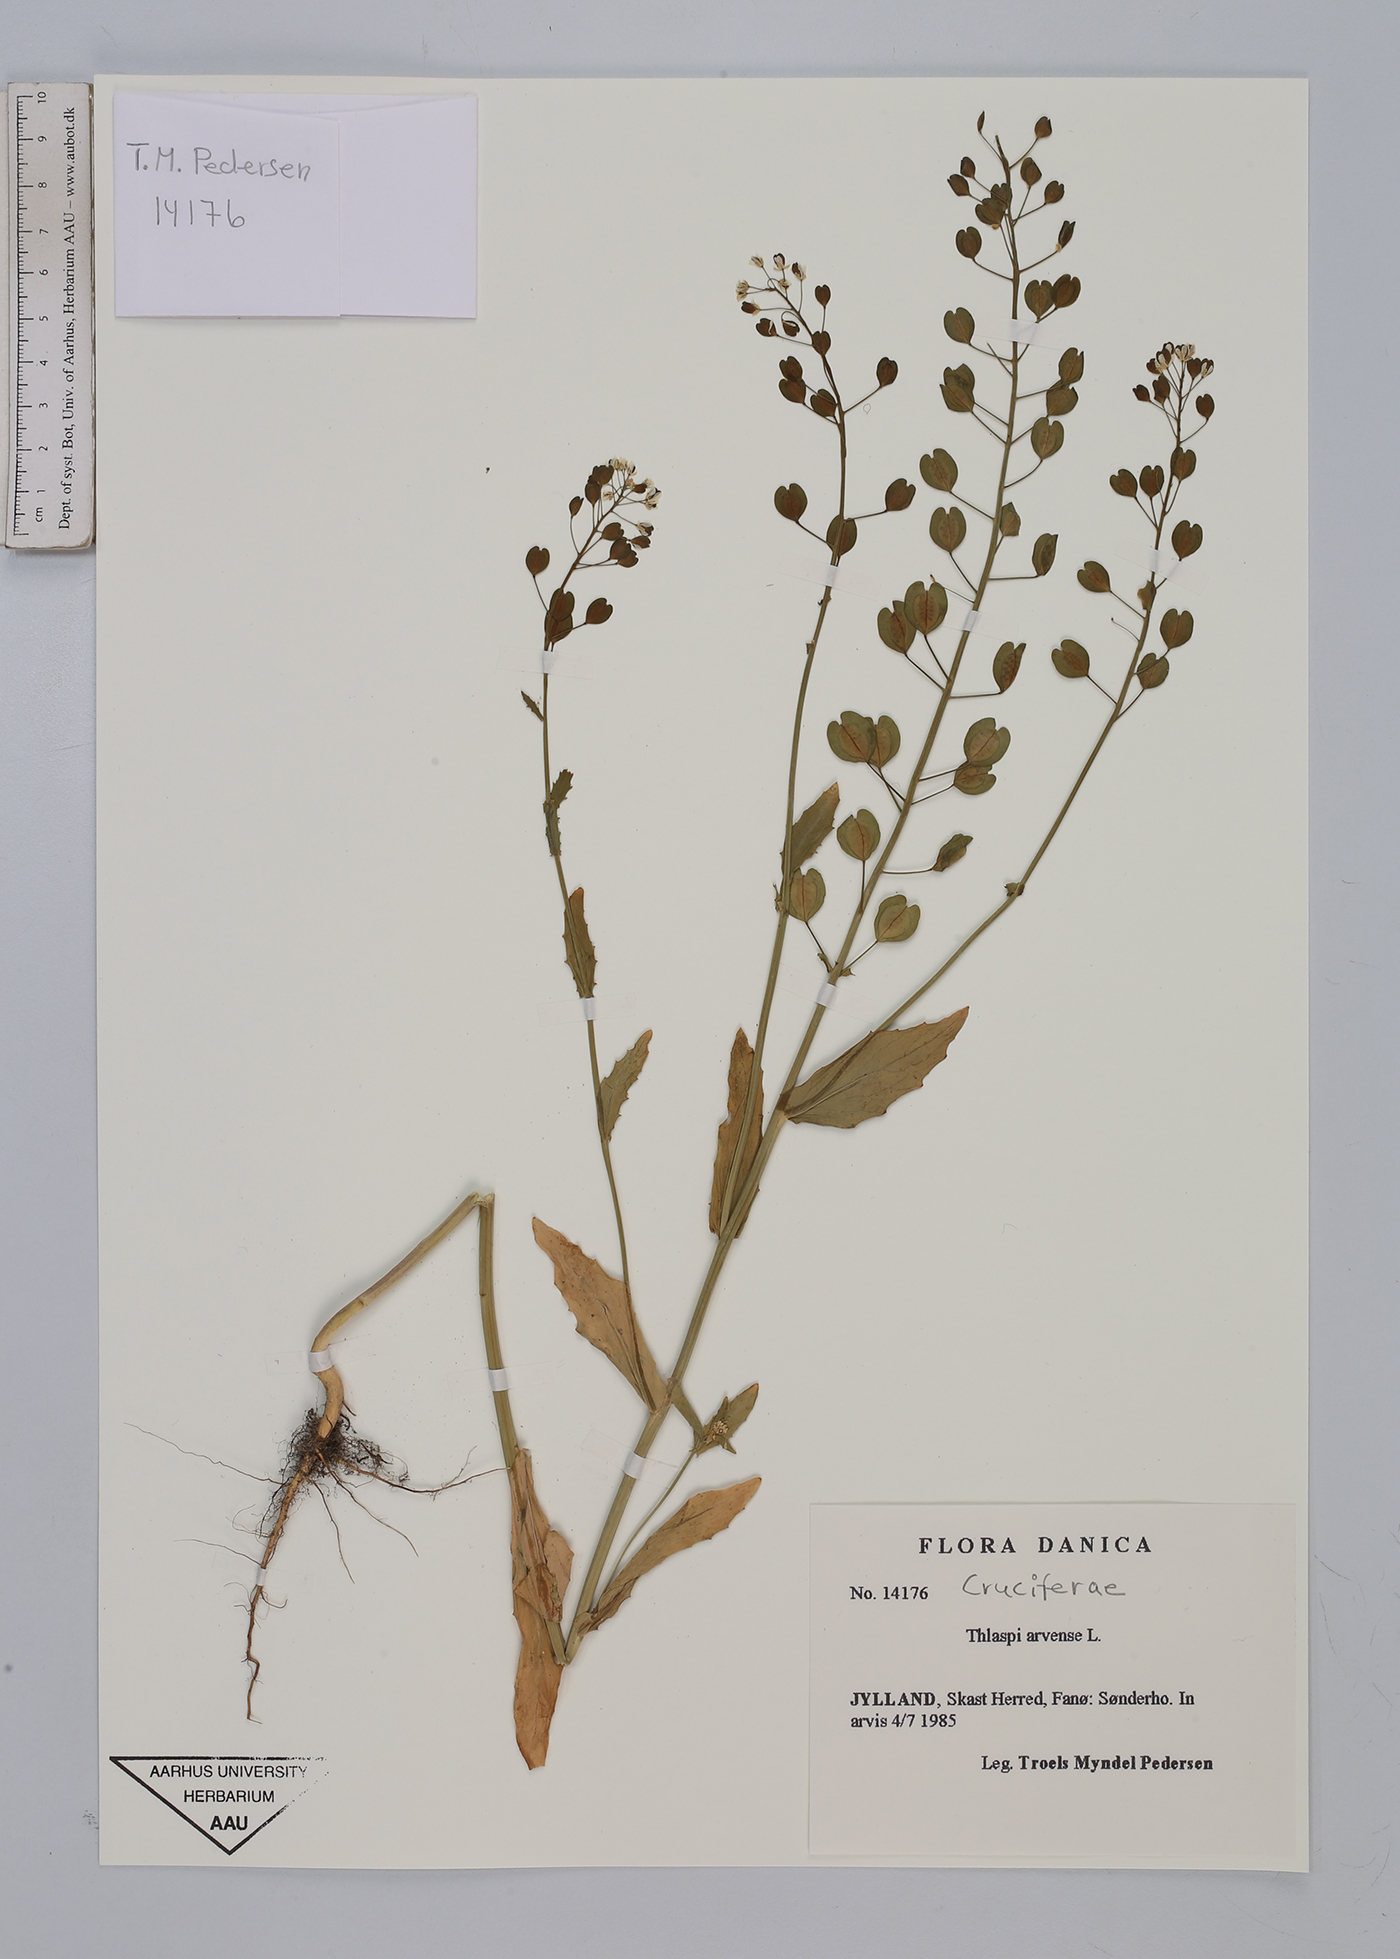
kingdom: Plantae
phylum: Tracheophyta
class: Magnoliopsida
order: Brassicales
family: Brassicaceae
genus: Thlaspi
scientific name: Thlaspi arvense
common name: Field pennycress
